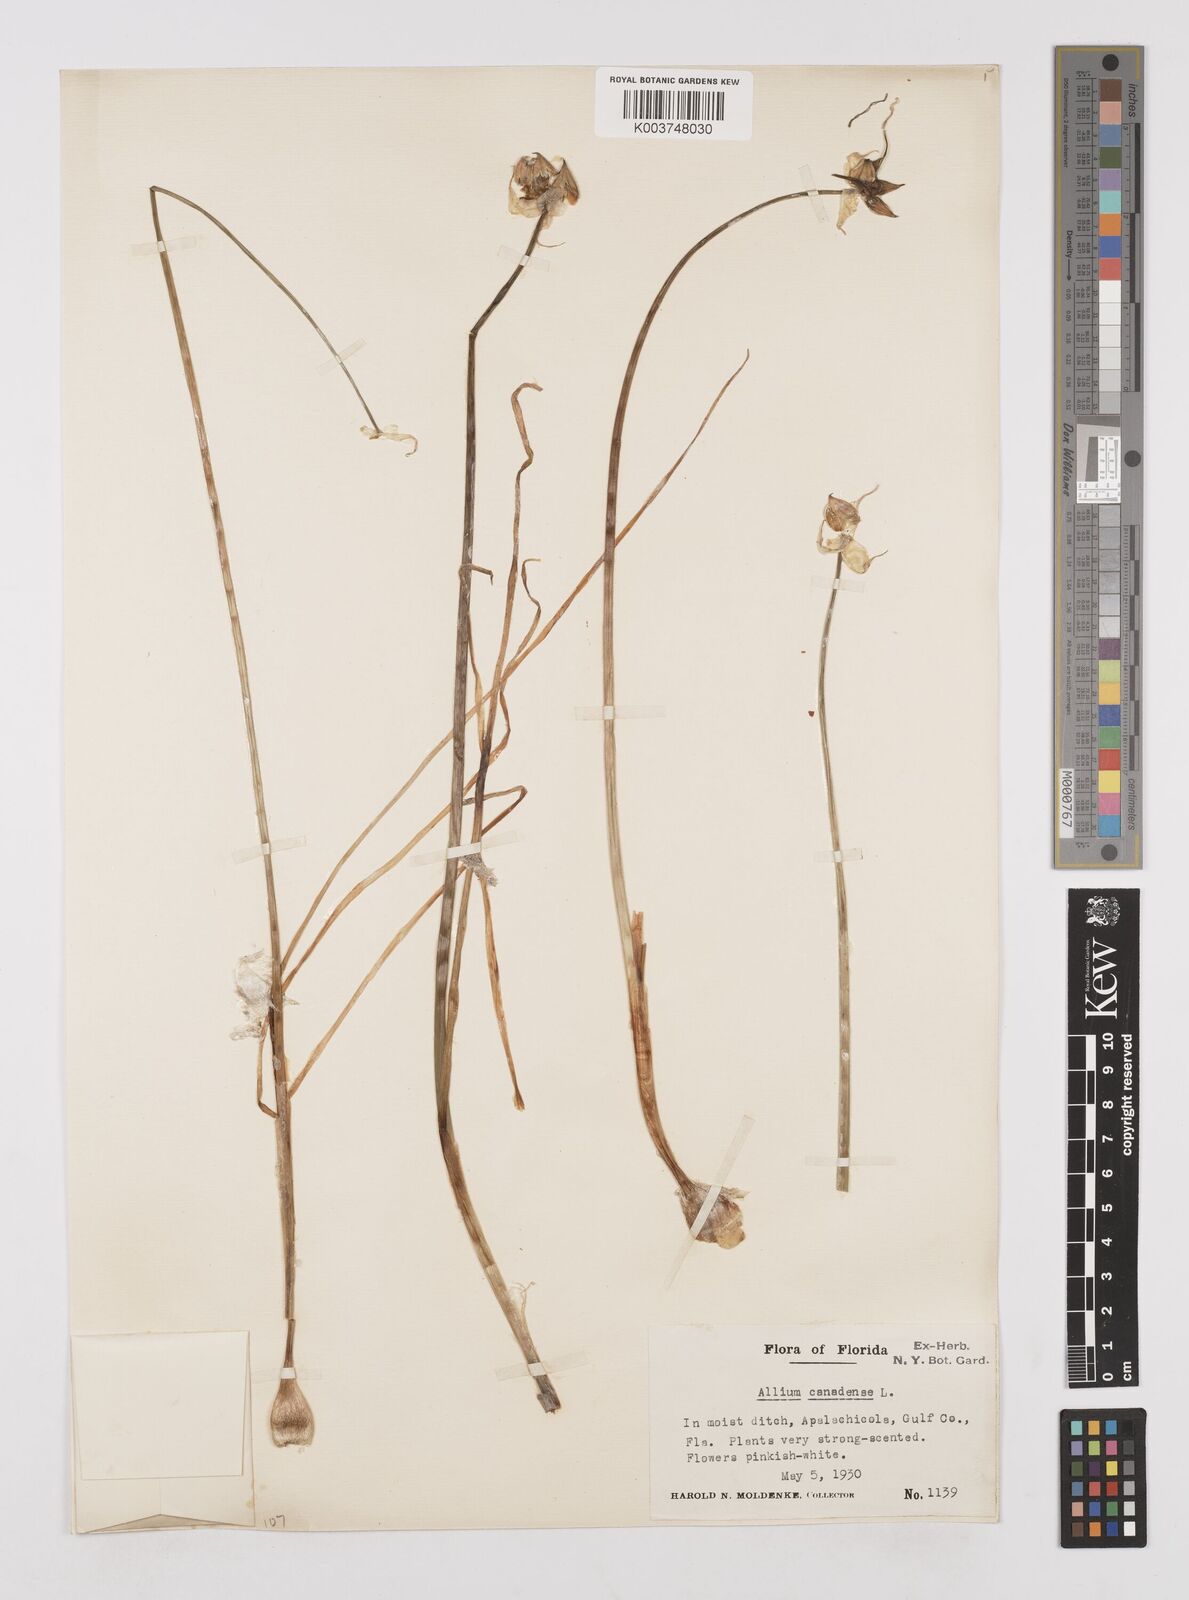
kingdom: Plantae
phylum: Tracheophyta
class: Liliopsida
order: Asparagales
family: Amaryllidaceae
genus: Allium
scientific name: Allium canadense
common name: Meadow garlic
